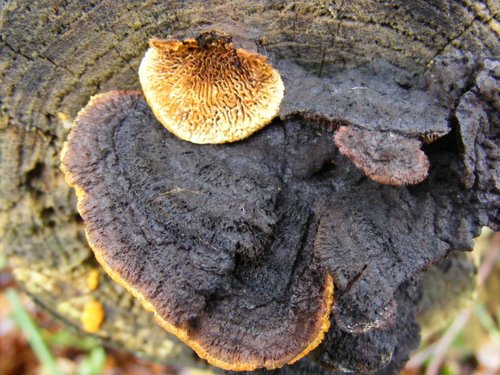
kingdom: Fungi
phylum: Basidiomycota
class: Agaricomycetes
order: Gloeophyllales
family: Gloeophyllaceae
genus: Gloeophyllum
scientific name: Gloeophyllum sepiarium
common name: fyrre-korkhat
